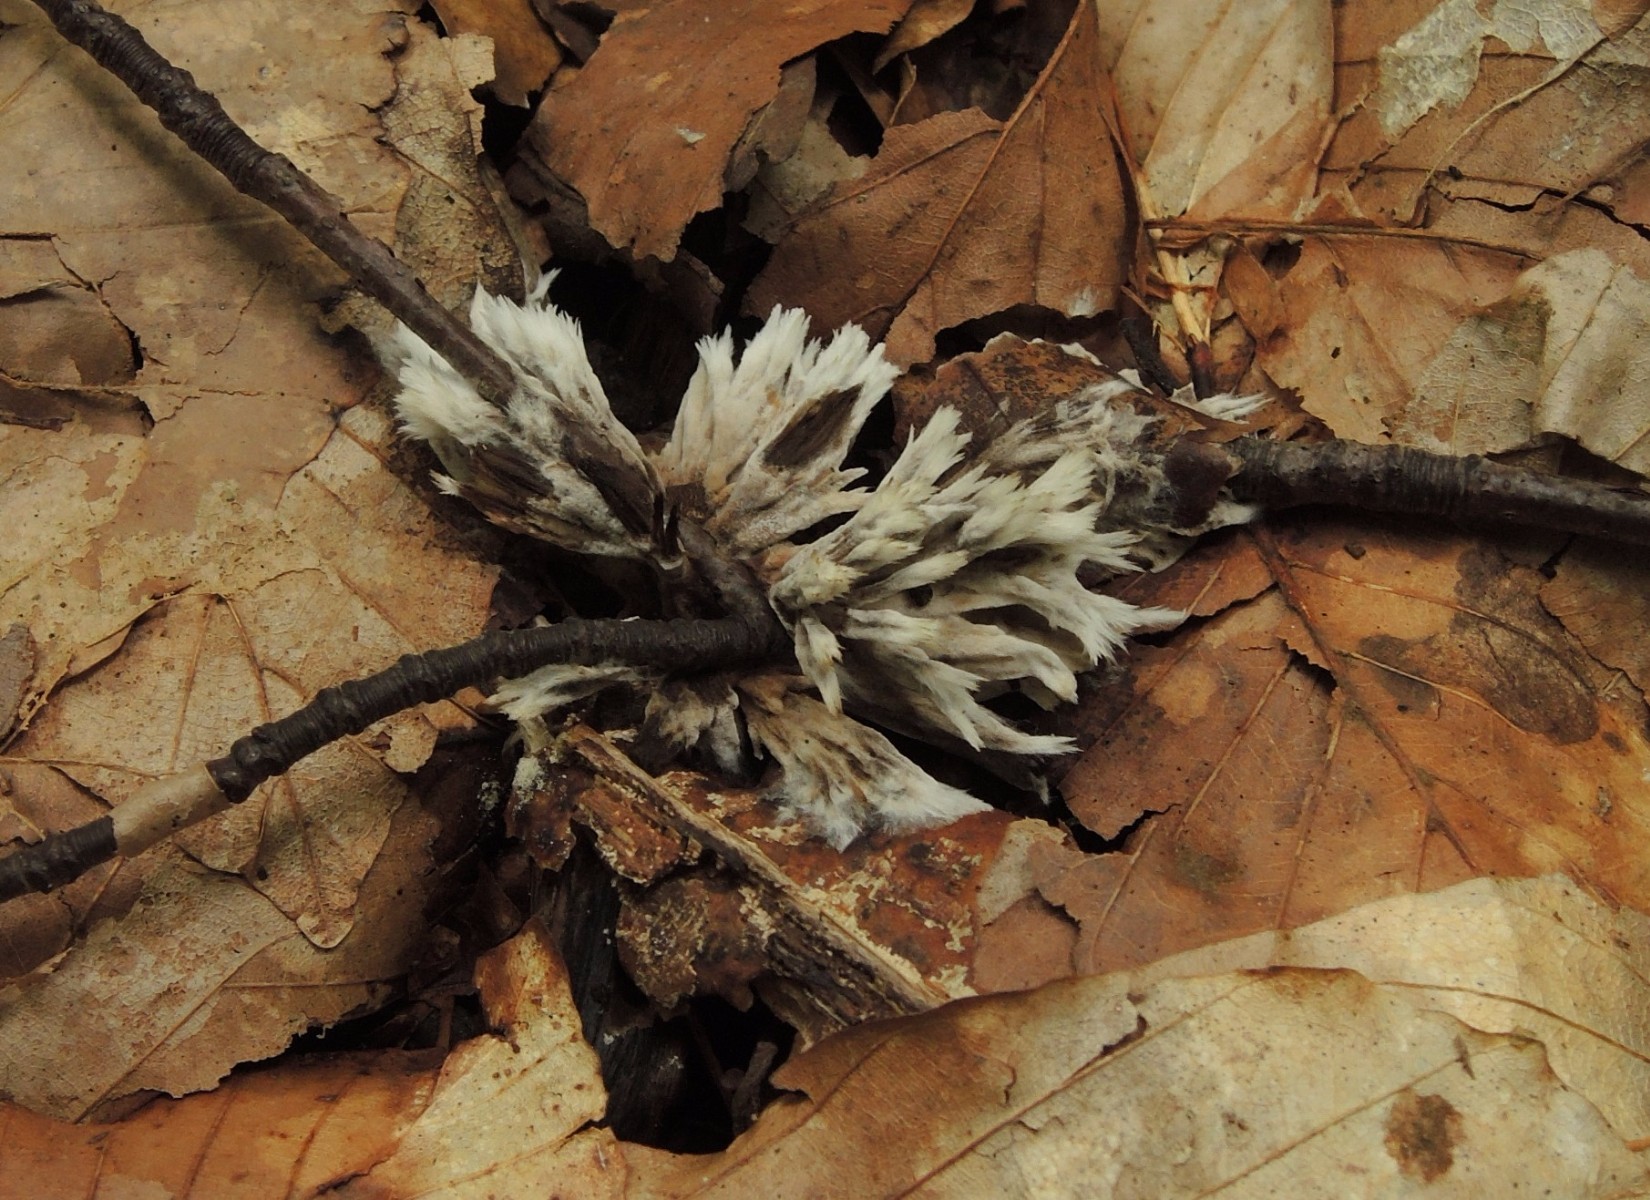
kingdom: Fungi
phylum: Basidiomycota
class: Agaricomycetes
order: Thelephorales
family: Thelephoraceae
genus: Thelephora
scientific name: Thelephora penicillata
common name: fladtrådt frynsesvamp
